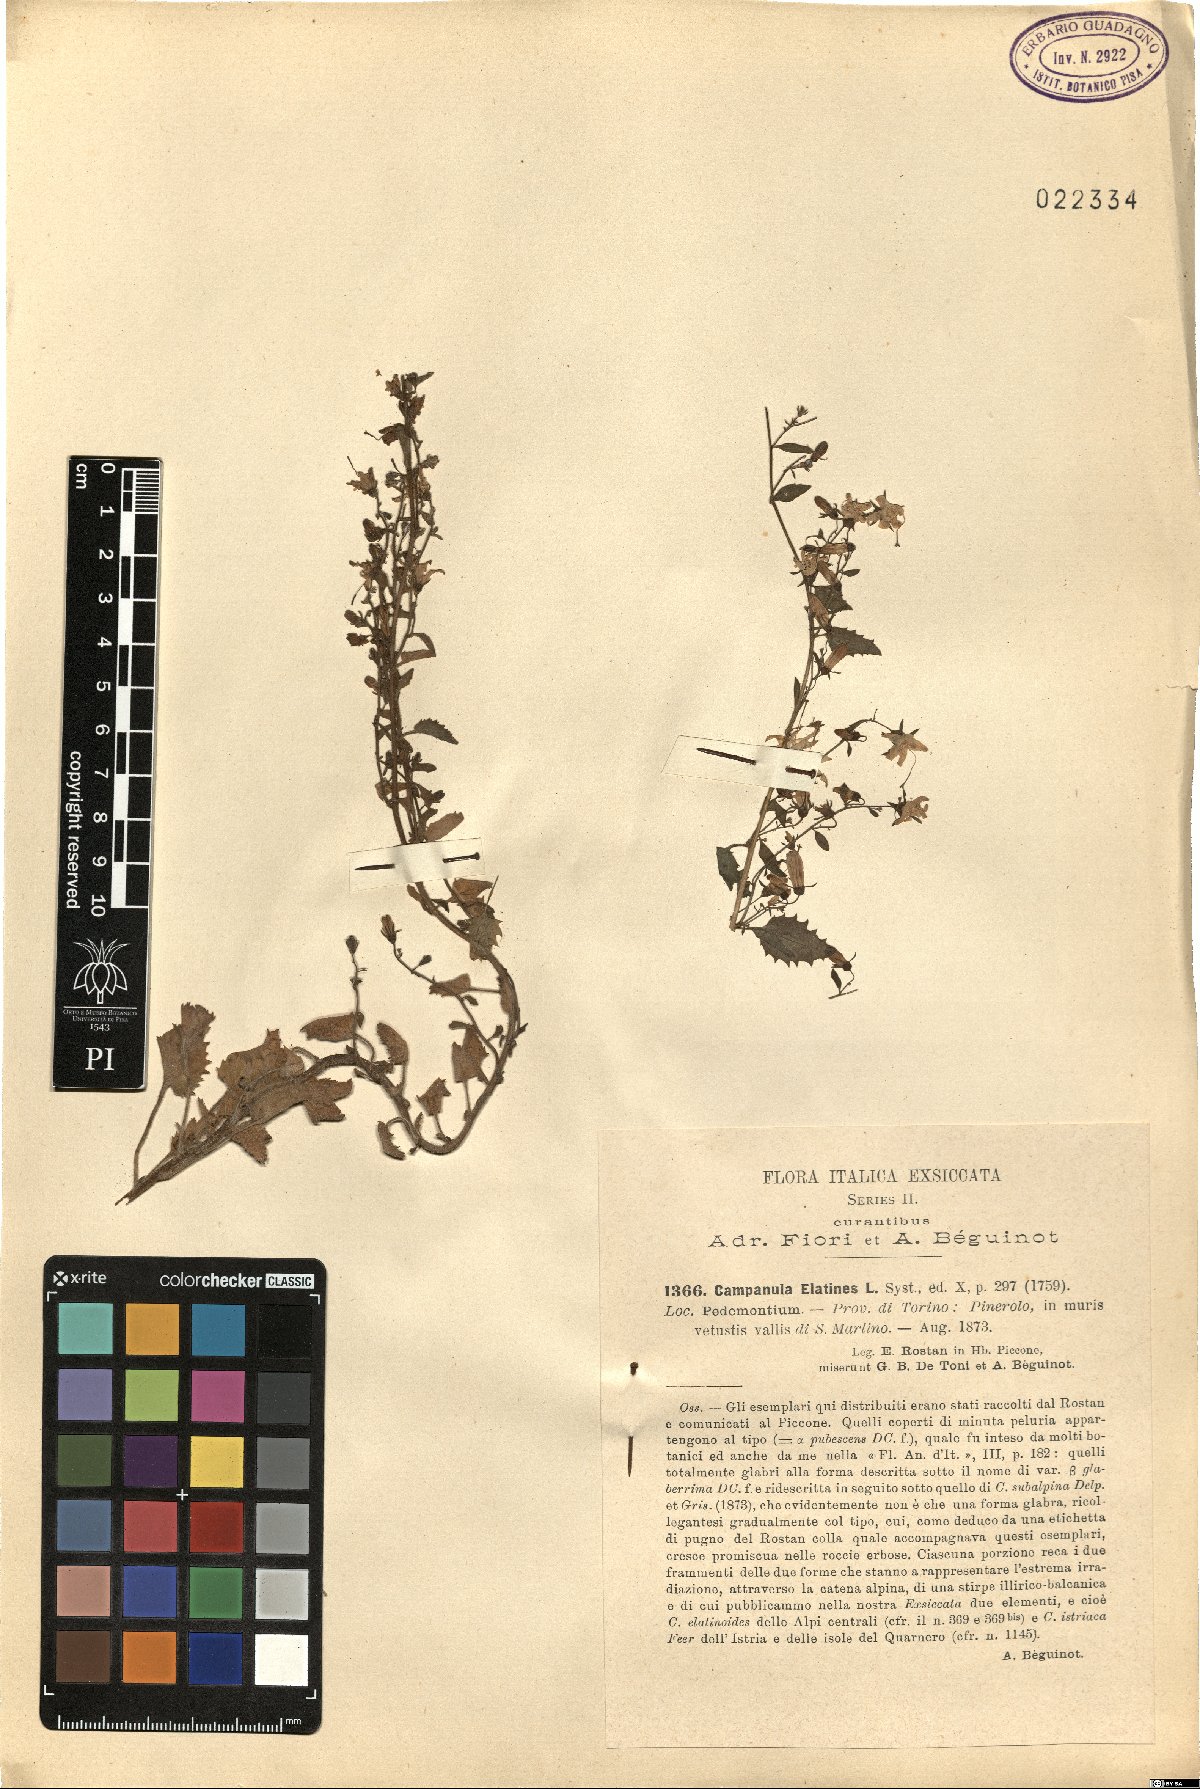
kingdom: Plantae
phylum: Tracheophyta
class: Magnoliopsida
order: Asterales
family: Campanulaceae
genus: Campanula
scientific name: Campanula elatines
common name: Adriatic bellflower
